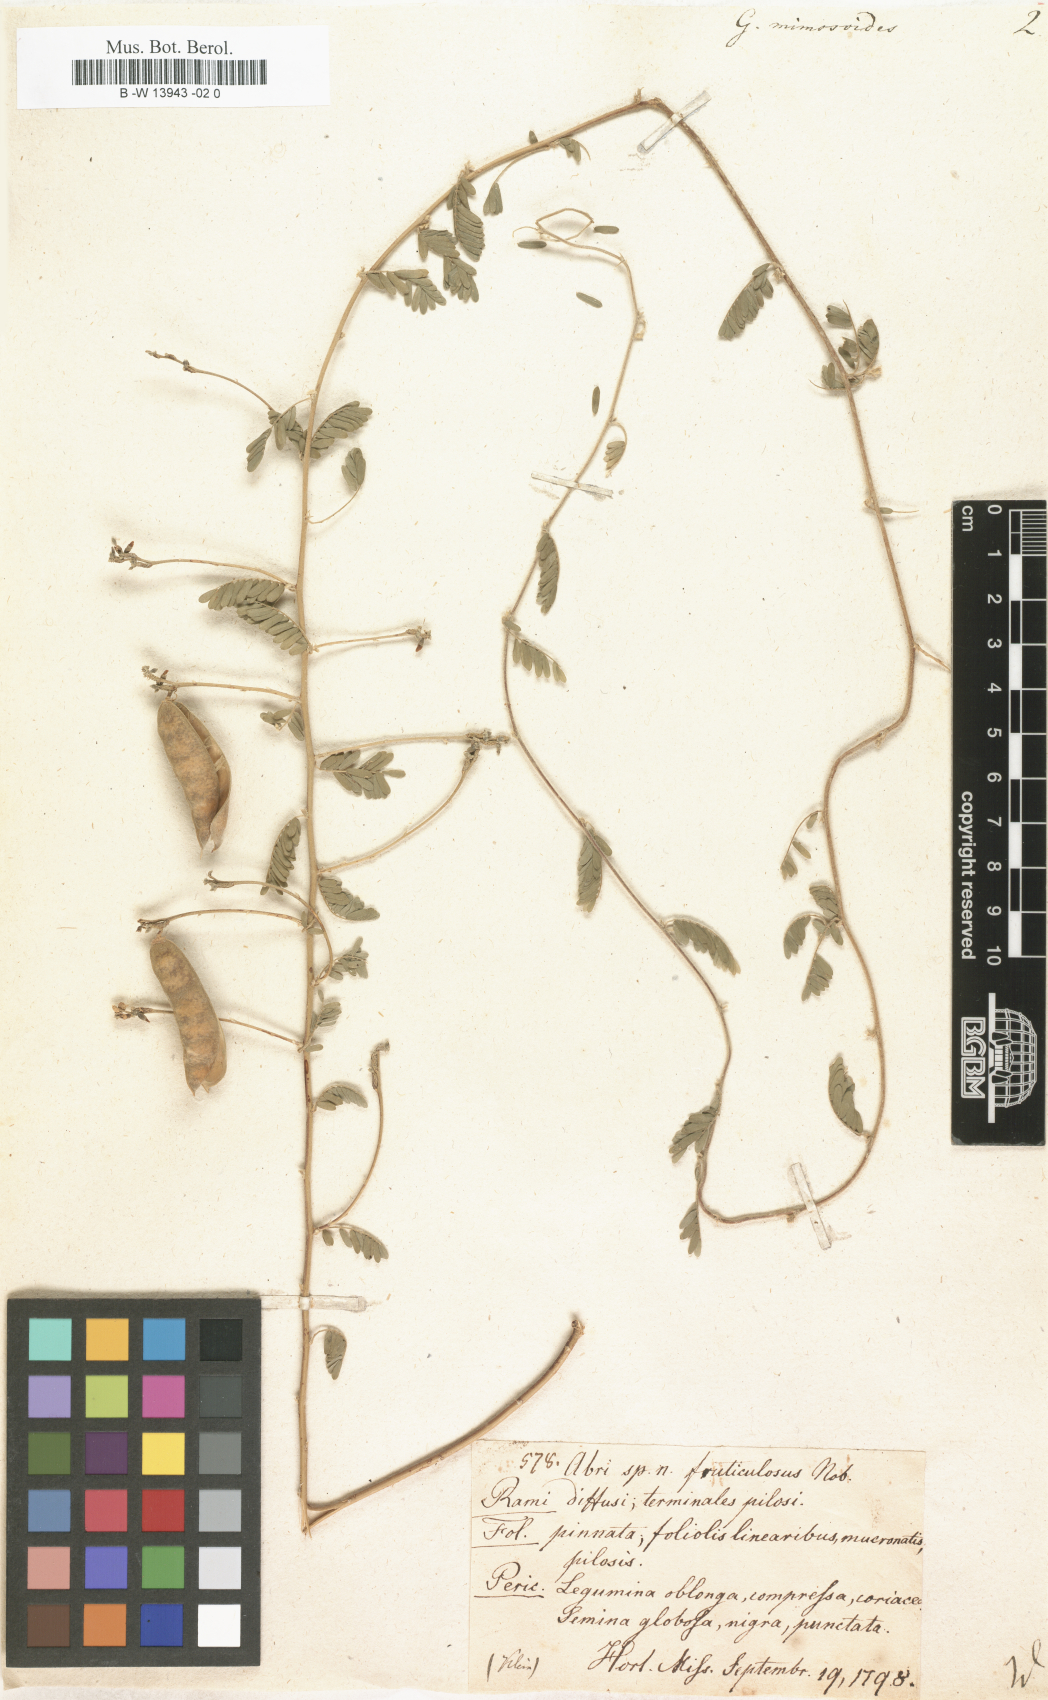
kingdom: Plantae
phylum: Tracheophyta
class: Magnoliopsida
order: Fabales
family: Fabaceae
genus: Leucaena
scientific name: Leucaena leucocephala
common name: White leadtree
